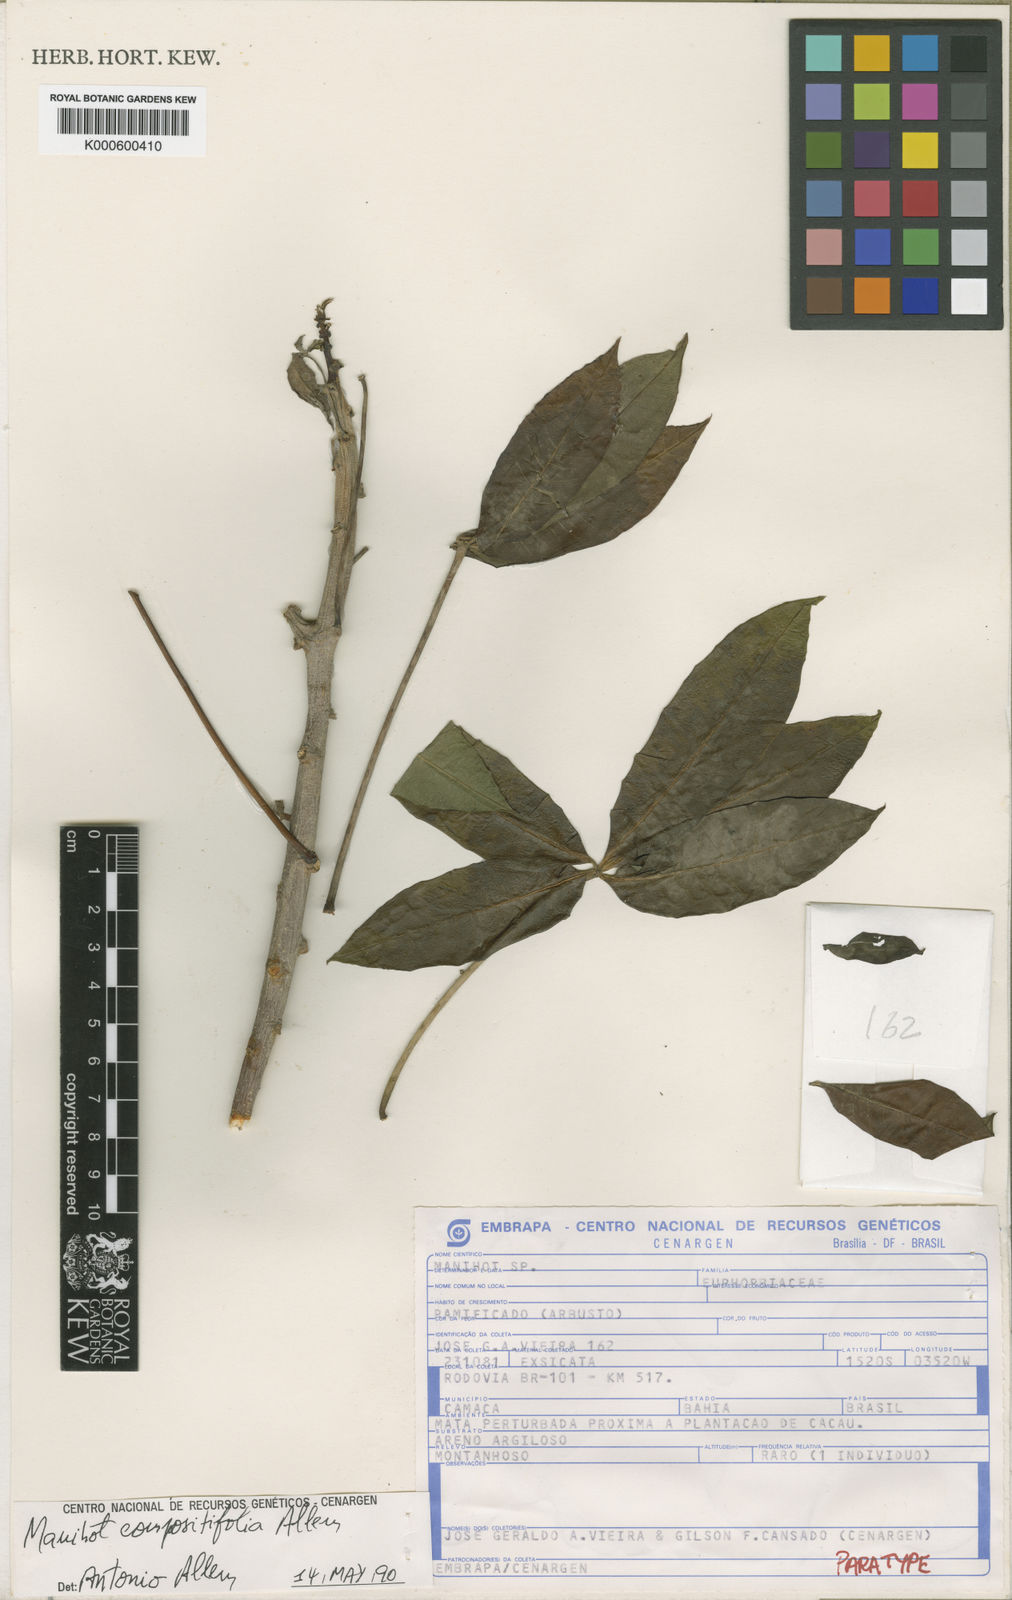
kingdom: Plantae
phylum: Tracheophyta
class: Magnoliopsida
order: Malpighiales
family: Euphorbiaceae
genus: Manihot
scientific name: Manihot compositifolia
